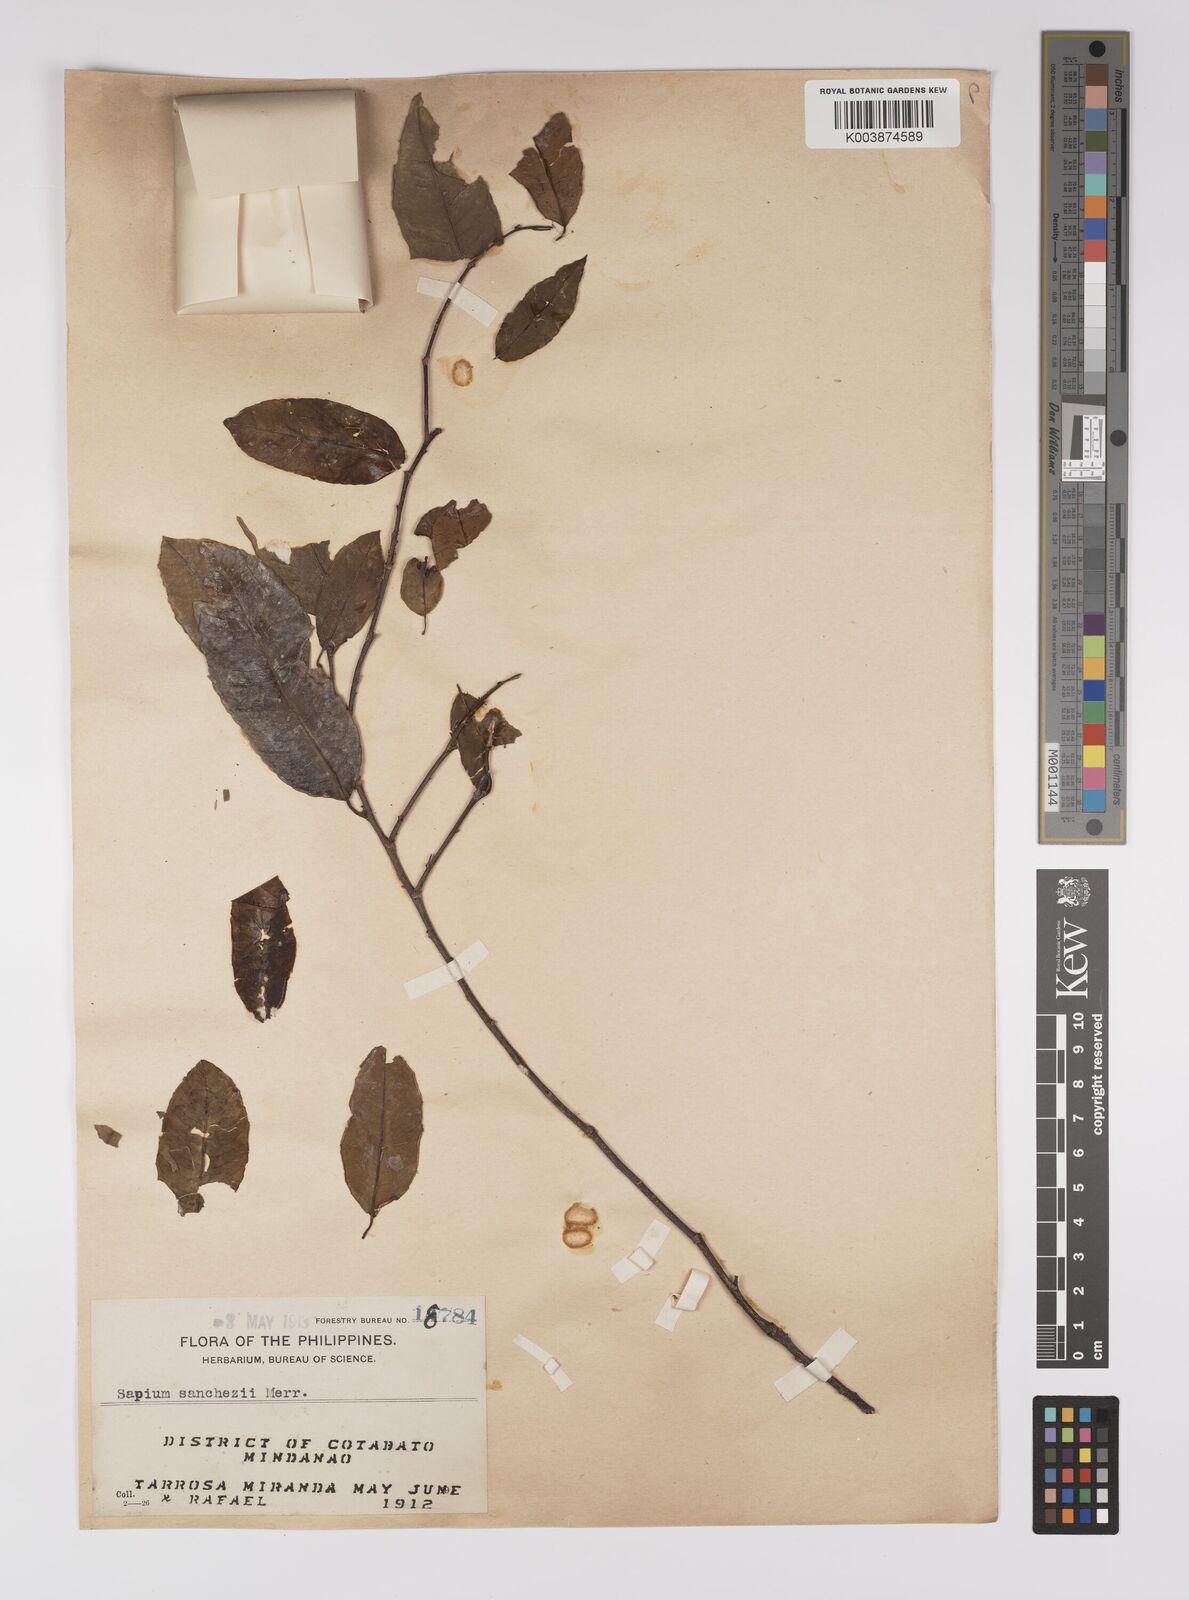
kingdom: Plantae
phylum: Tracheophyta
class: Magnoliopsida
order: Malpighiales
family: Euphorbiaceae
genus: Shirakiopsis
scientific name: Shirakiopsis sanchezii
